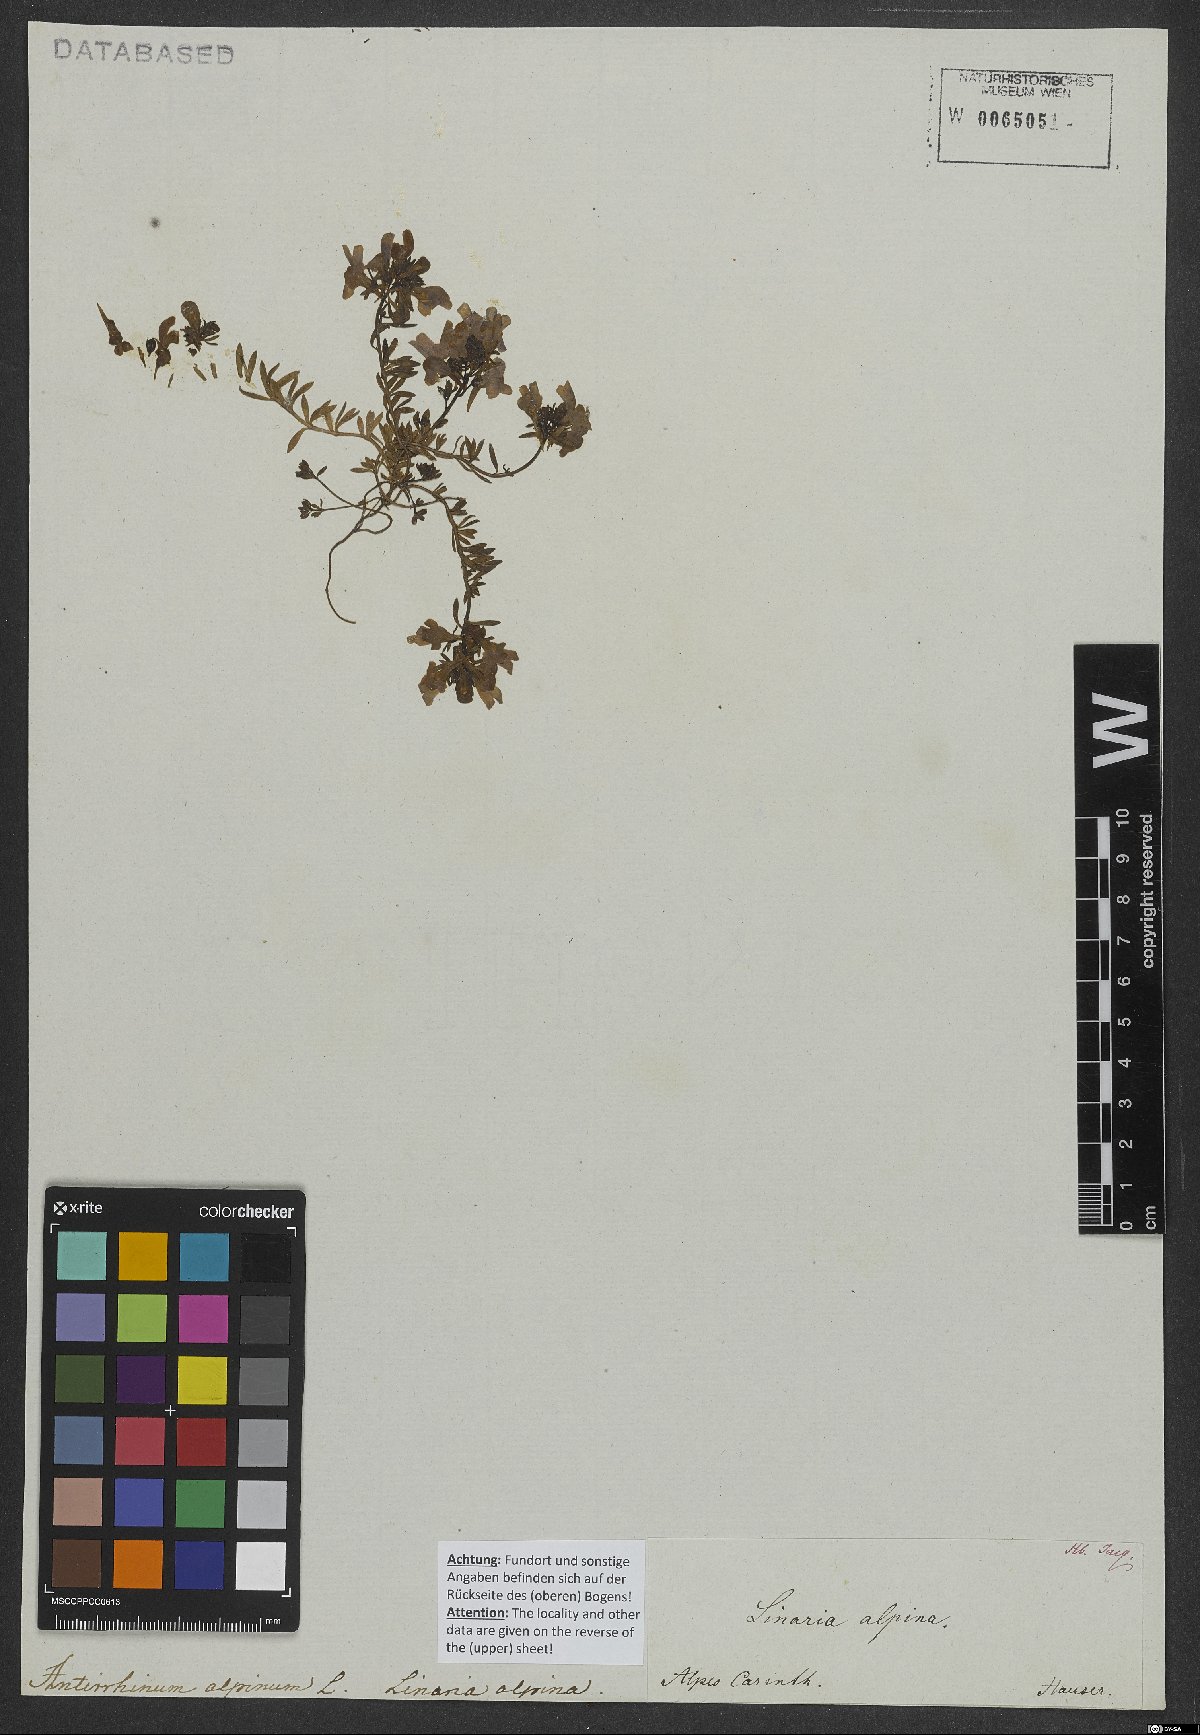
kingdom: Plantae
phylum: Tracheophyta
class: Magnoliopsida
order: Lamiales
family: Plantaginaceae
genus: Linaria
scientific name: Linaria alpina
